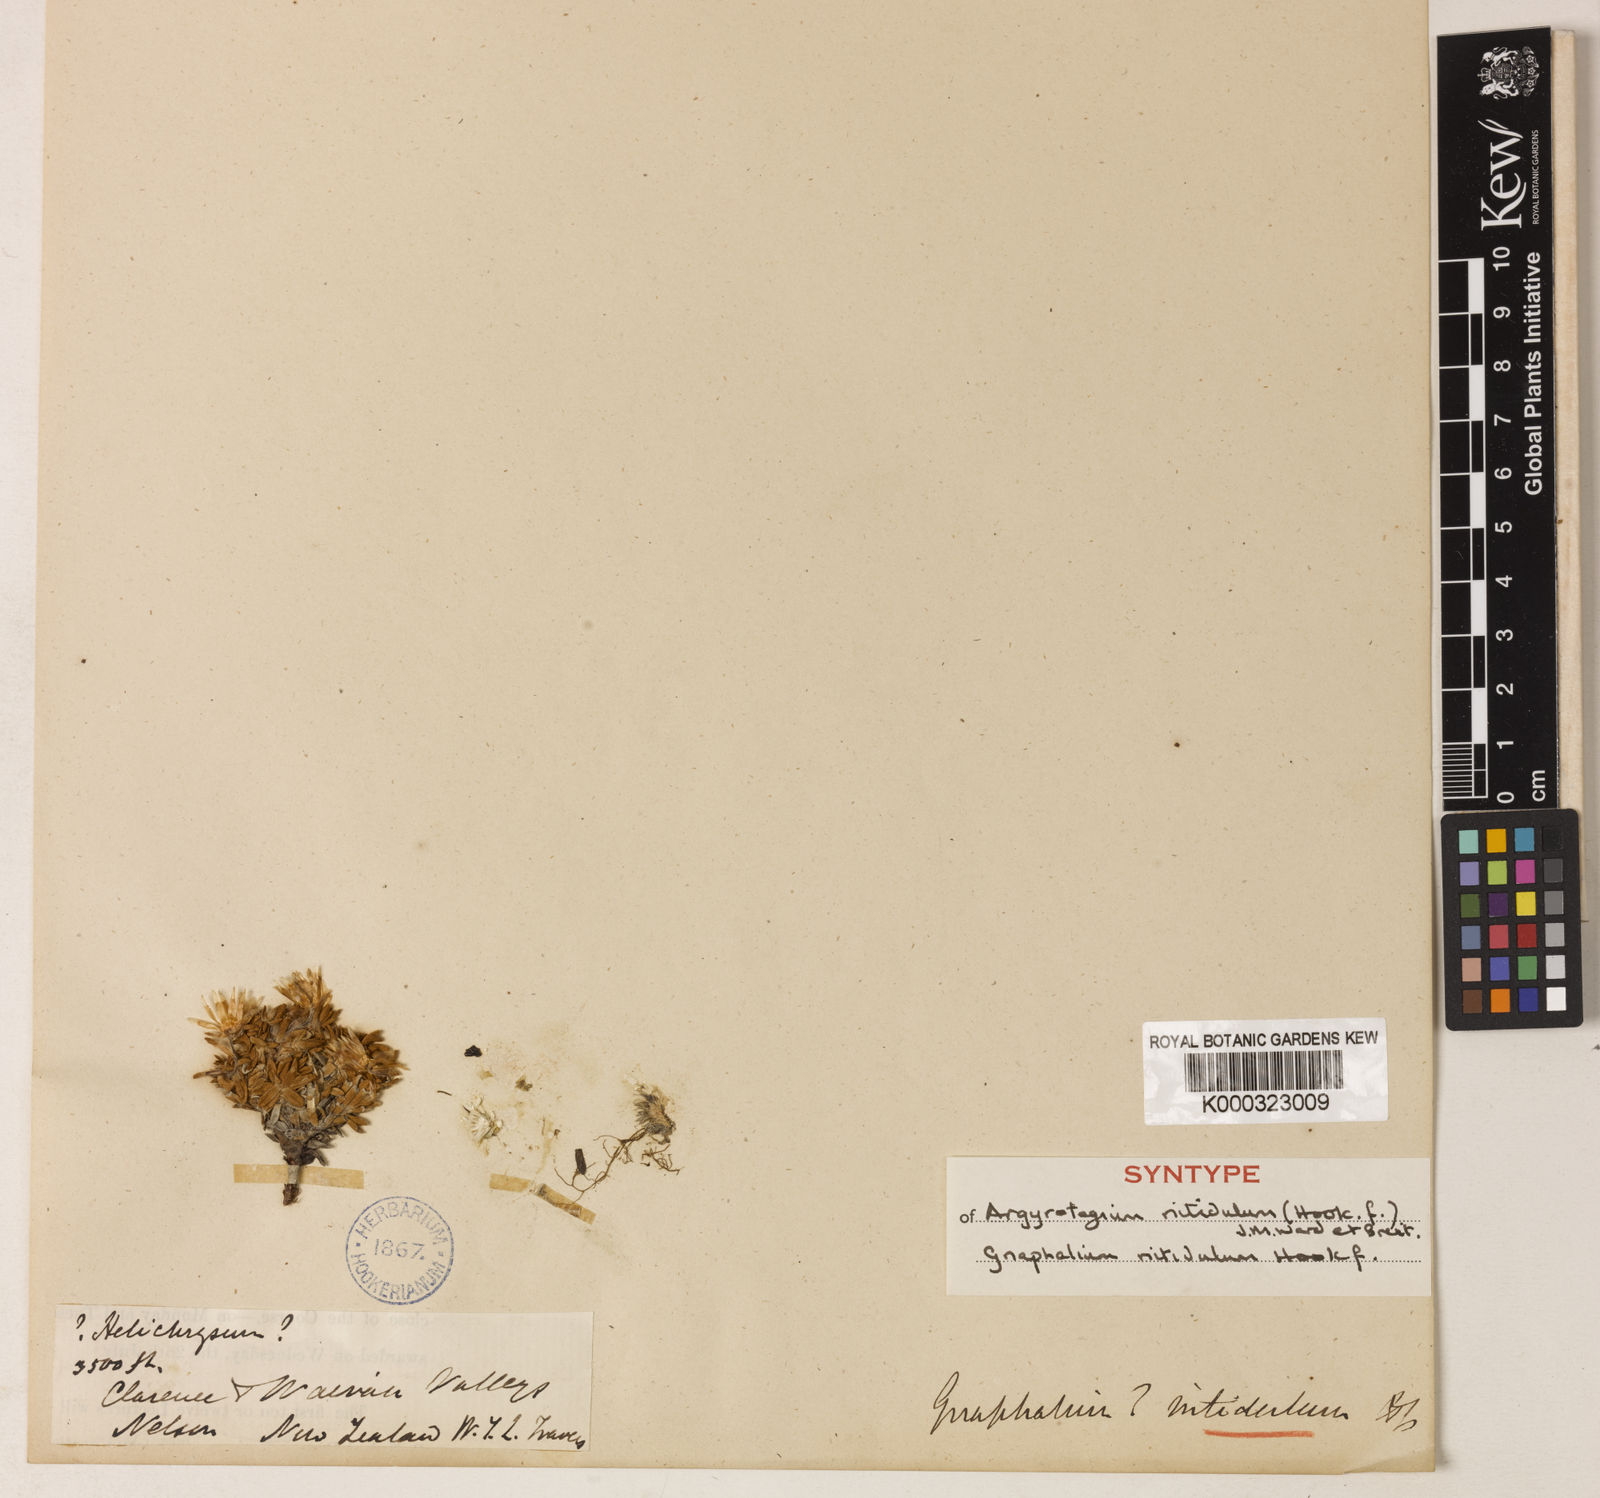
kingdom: Plantae
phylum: Tracheophyta
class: Magnoliopsida
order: Asterales
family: Asteraceae
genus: Argyrotegium
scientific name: Argyrotegium nitidulum
